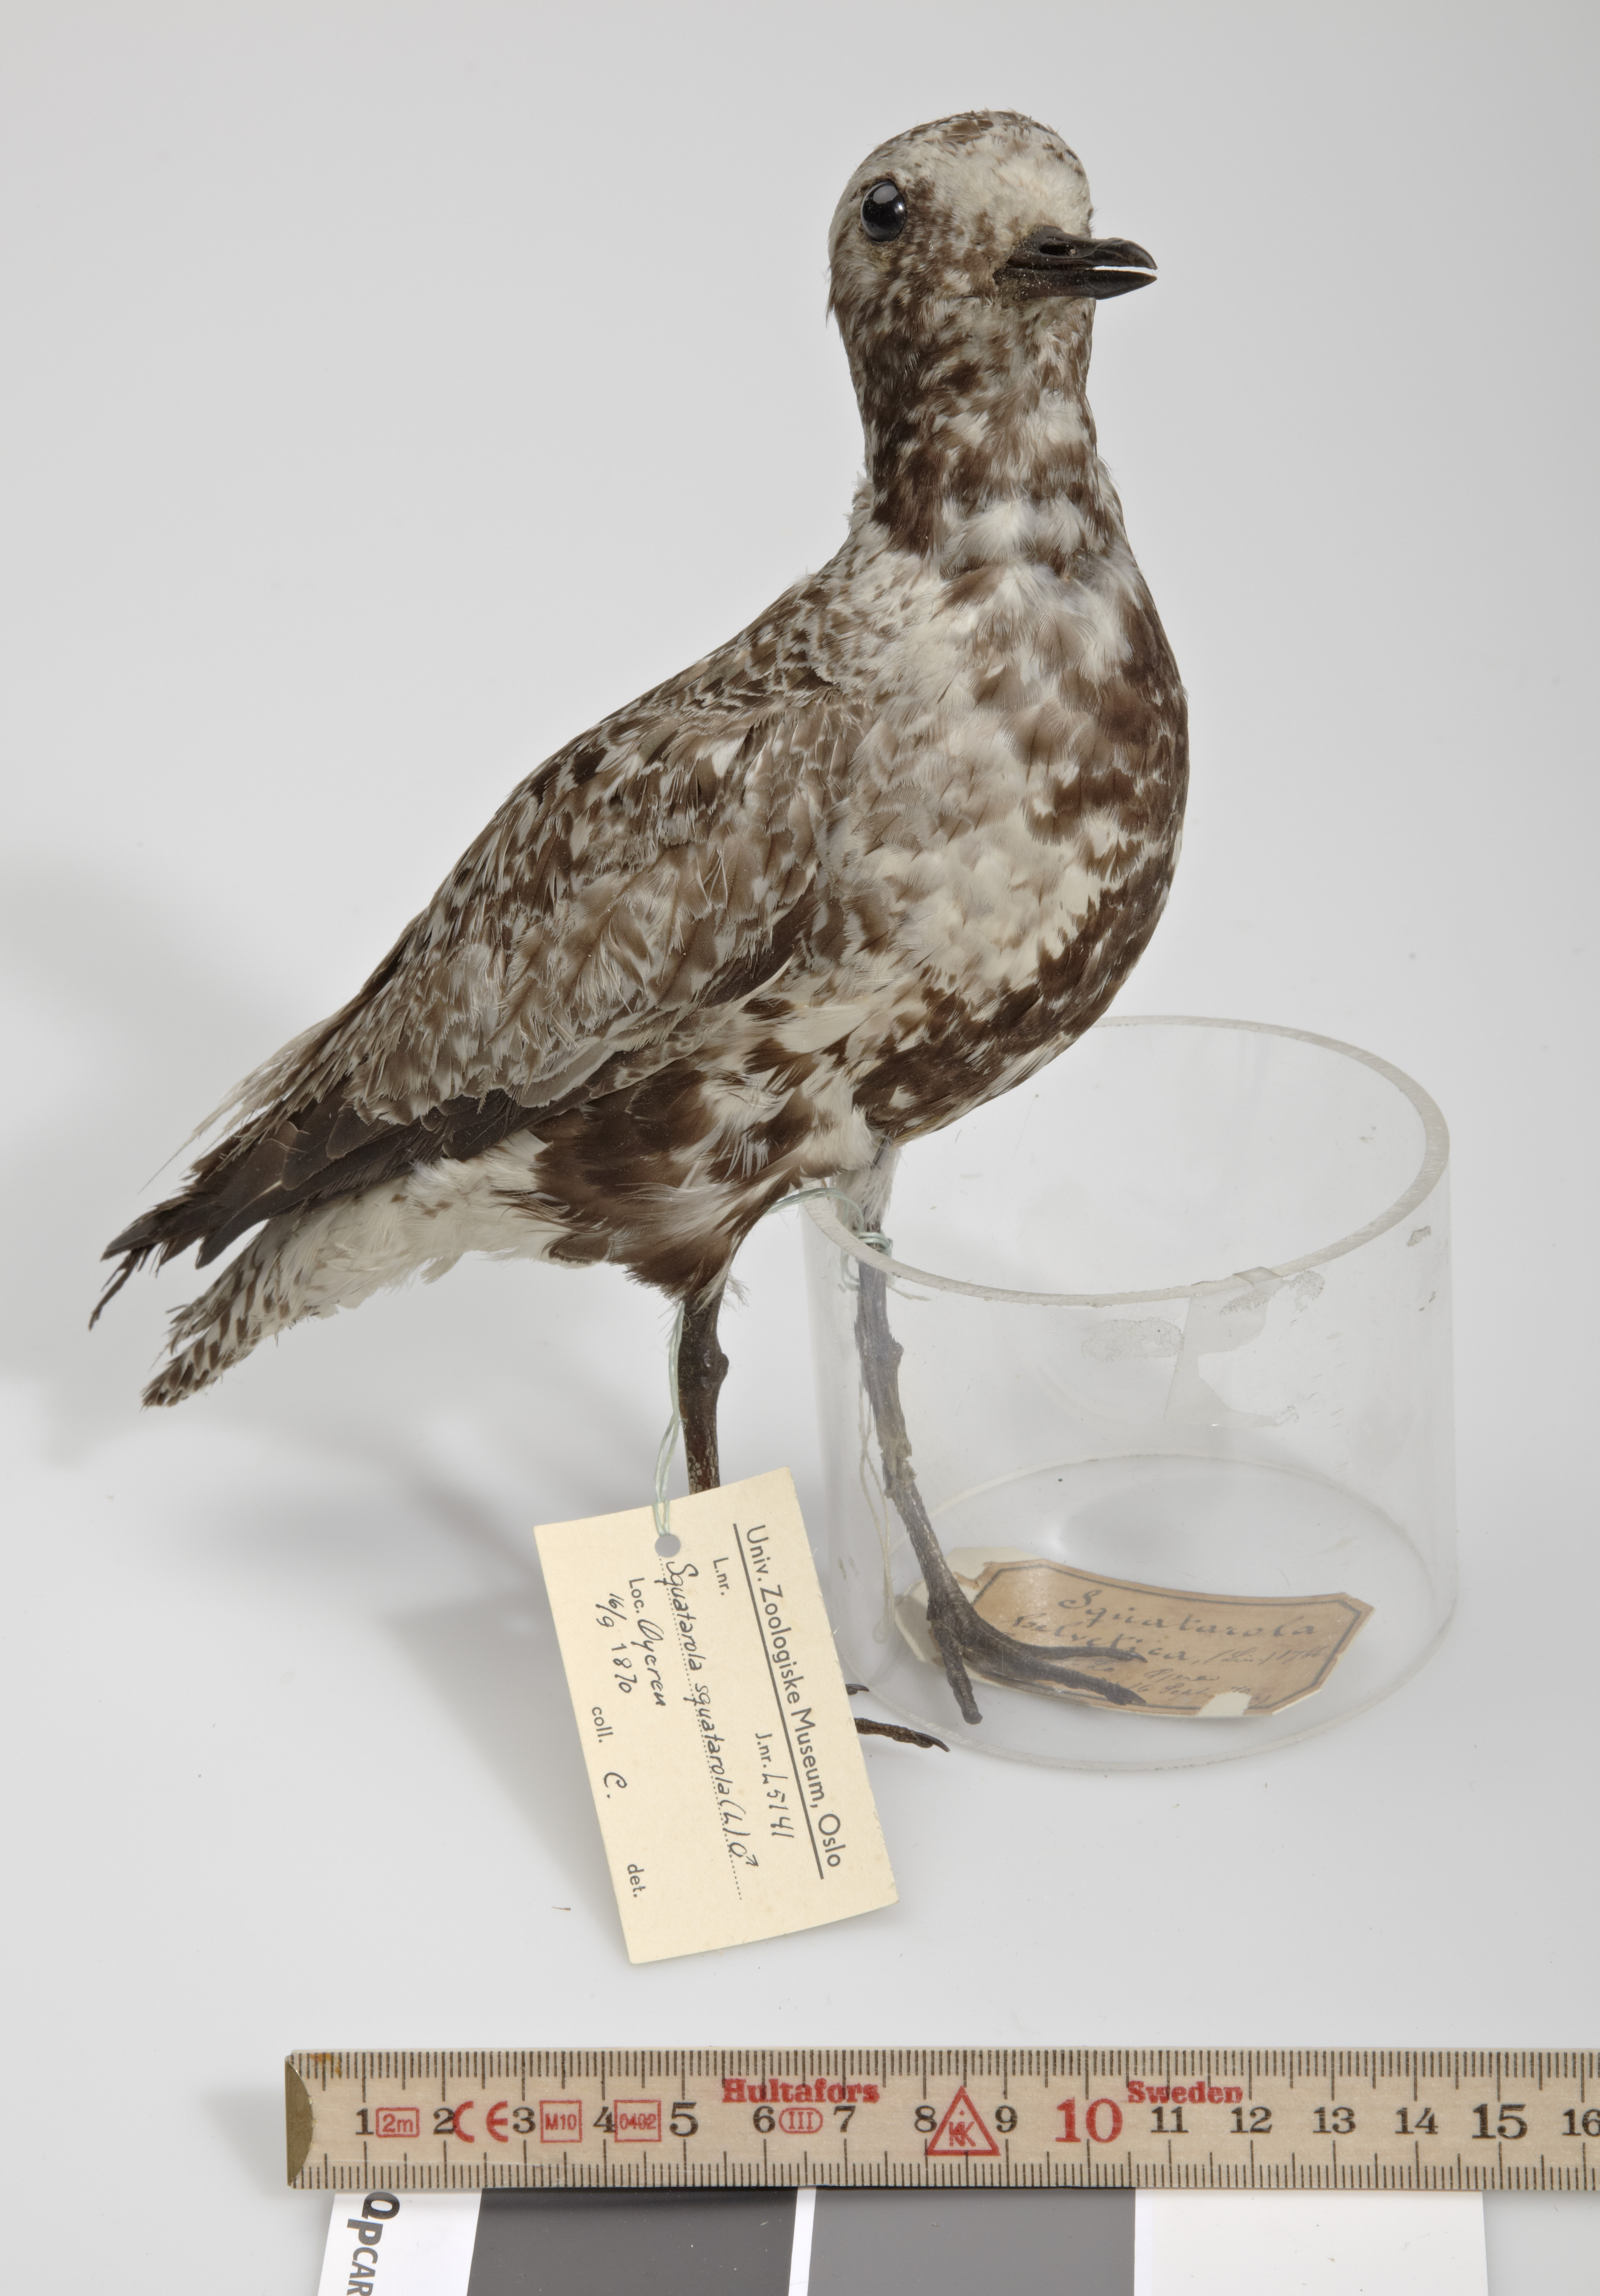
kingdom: Animalia
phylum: Chordata
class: Aves
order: Charadriiformes
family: Charadriidae
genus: Pluvialis
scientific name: Pluvialis squatarola
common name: Grey plover
